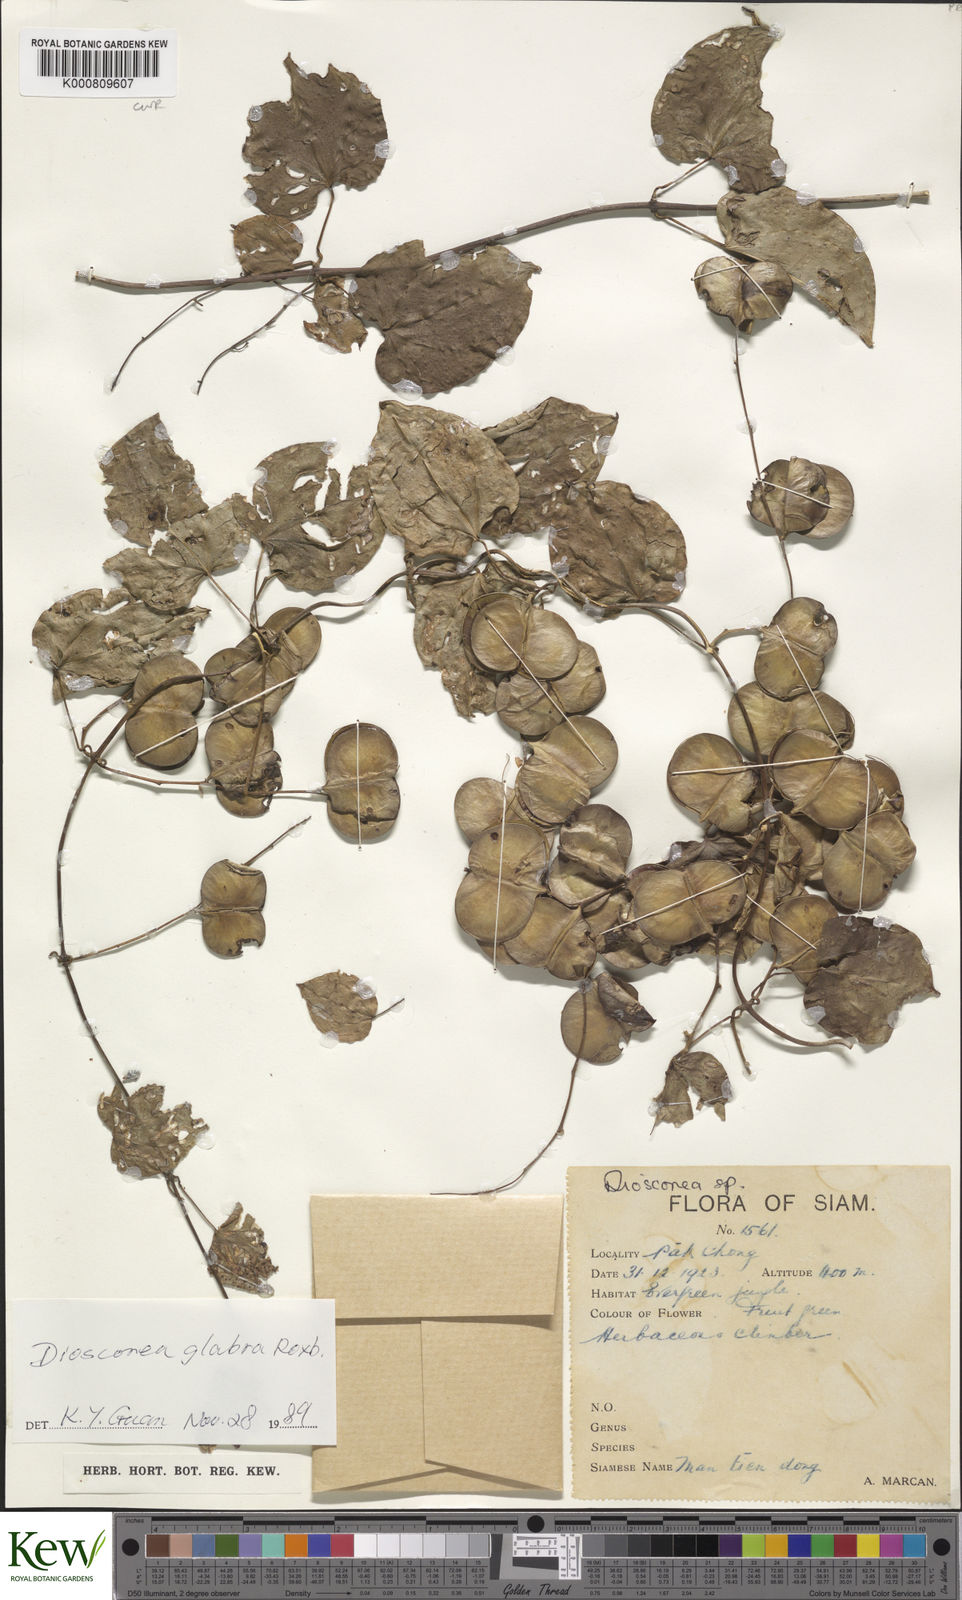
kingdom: Plantae
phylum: Tracheophyta
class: Liliopsida
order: Dioscoreales
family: Dioscoreaceae
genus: Dioscorea
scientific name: Dioscorea glabra
